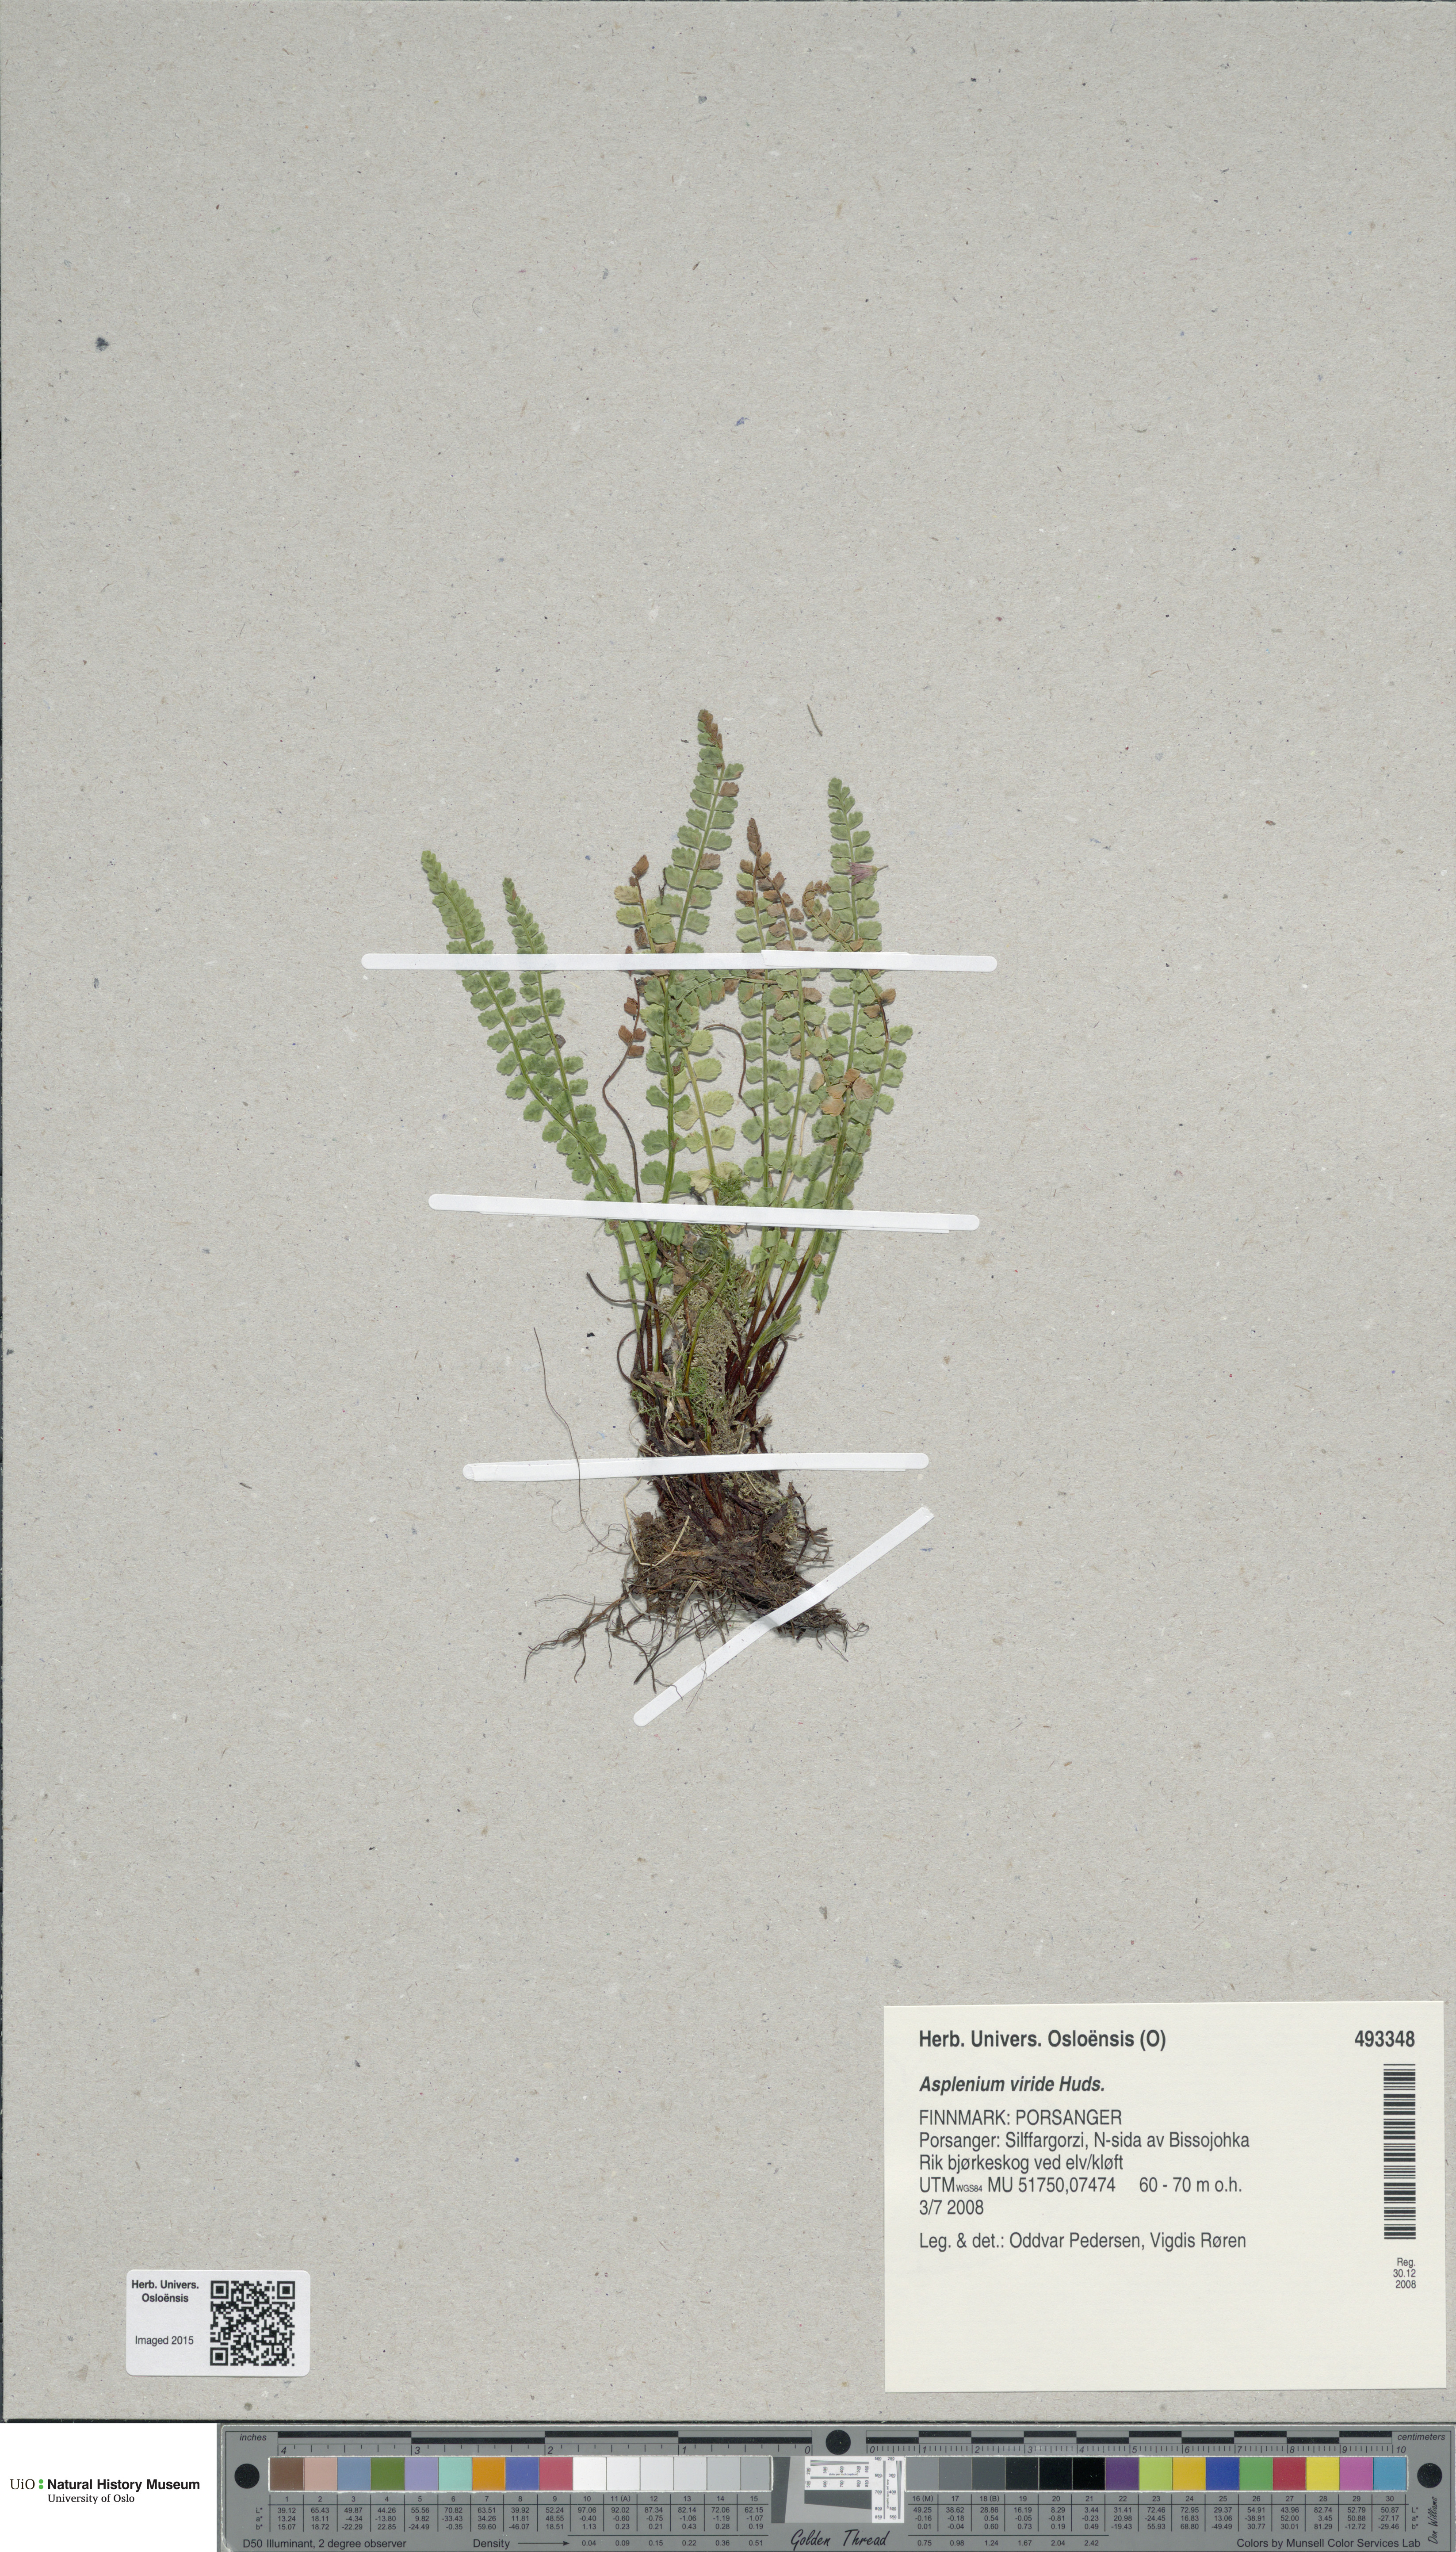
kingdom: Plantae
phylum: Tracheophyta
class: Polypodiopsida
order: Polypodiales
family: Aspleniaceae
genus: Asplenium
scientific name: Asplenium viride
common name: Green spleenwort
